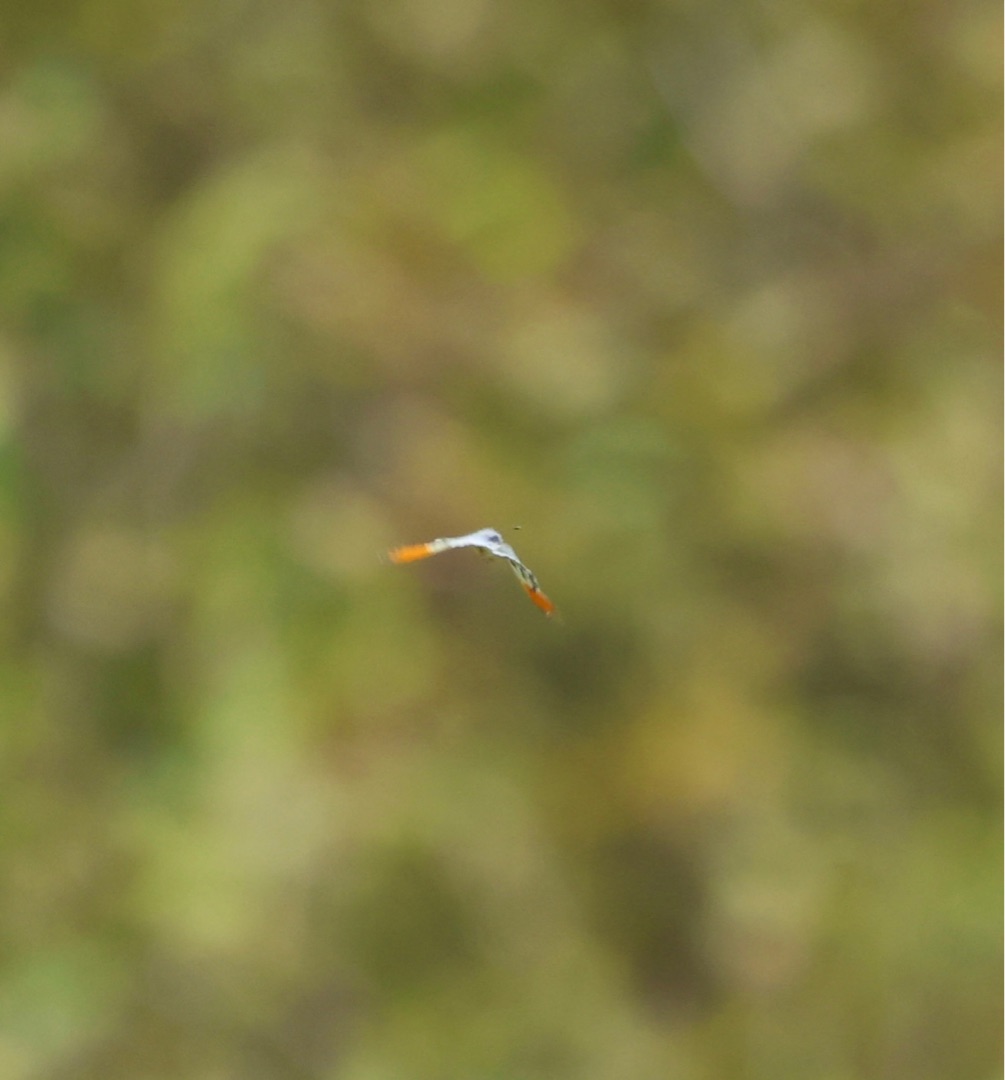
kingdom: Animalia
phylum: Arthropoda
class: Insecta
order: Lepidoptera
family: Pieridae
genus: Anthocharis
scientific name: Anthocharis cardamines
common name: Aurora
